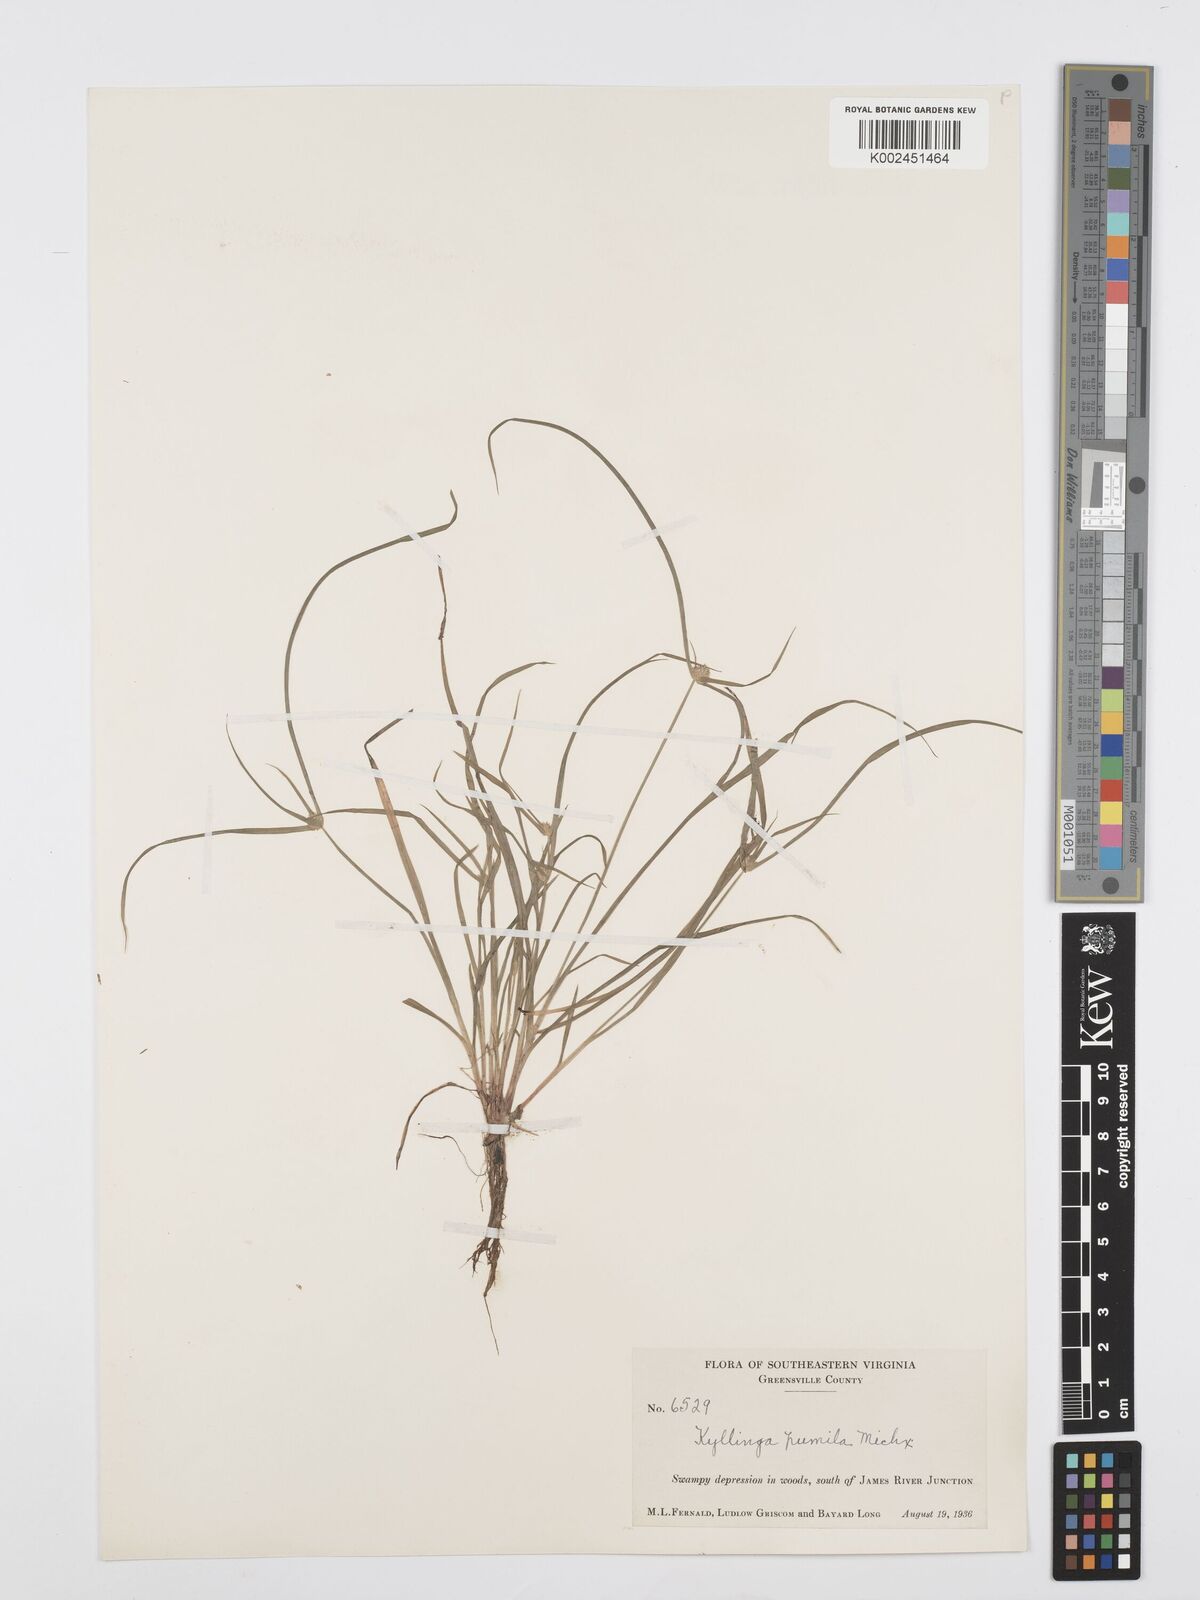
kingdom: Plantae
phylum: Tracheophyta
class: Liliopsida
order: Poales
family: Cyperaceae
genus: Cyperus
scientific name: Cyperus
